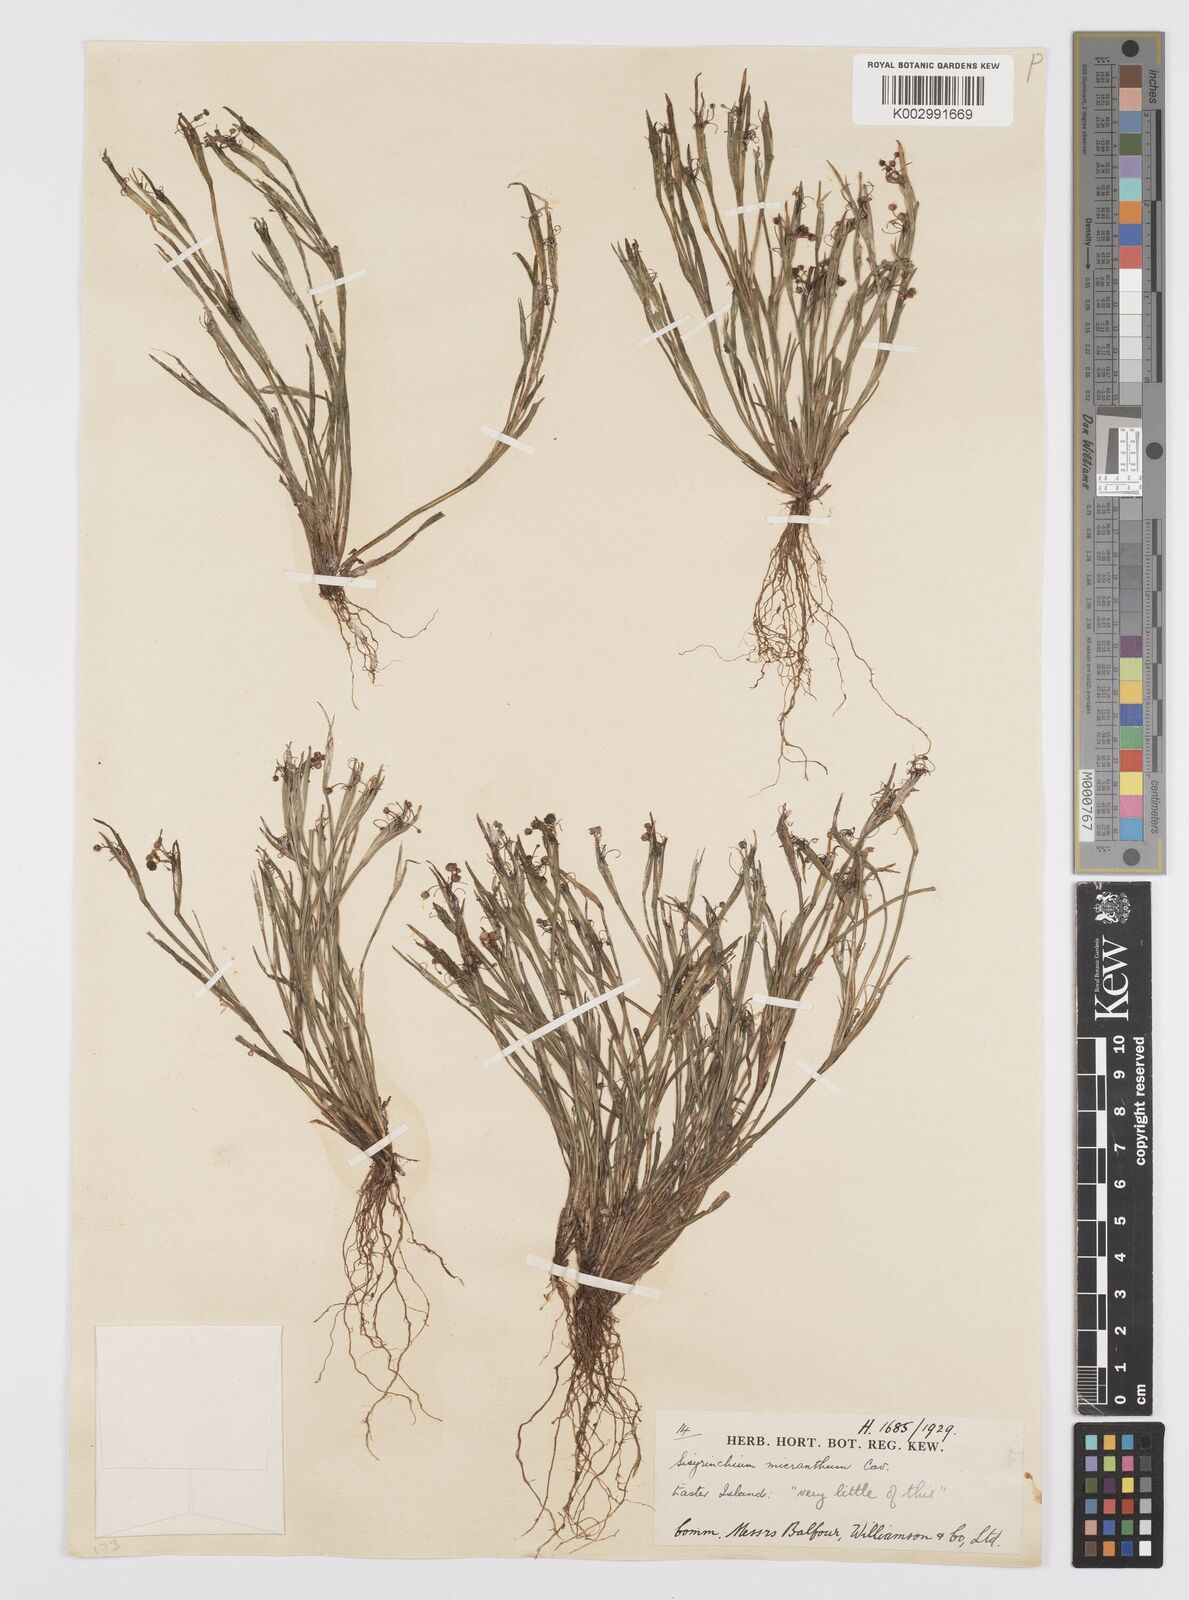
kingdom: Plantae
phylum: Tracheophyta
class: Liliopsida
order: Asparagales
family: Iridaceae
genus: Sisyrinchium
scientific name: Sisyrinchium micranthum
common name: Bermuda pigroot
